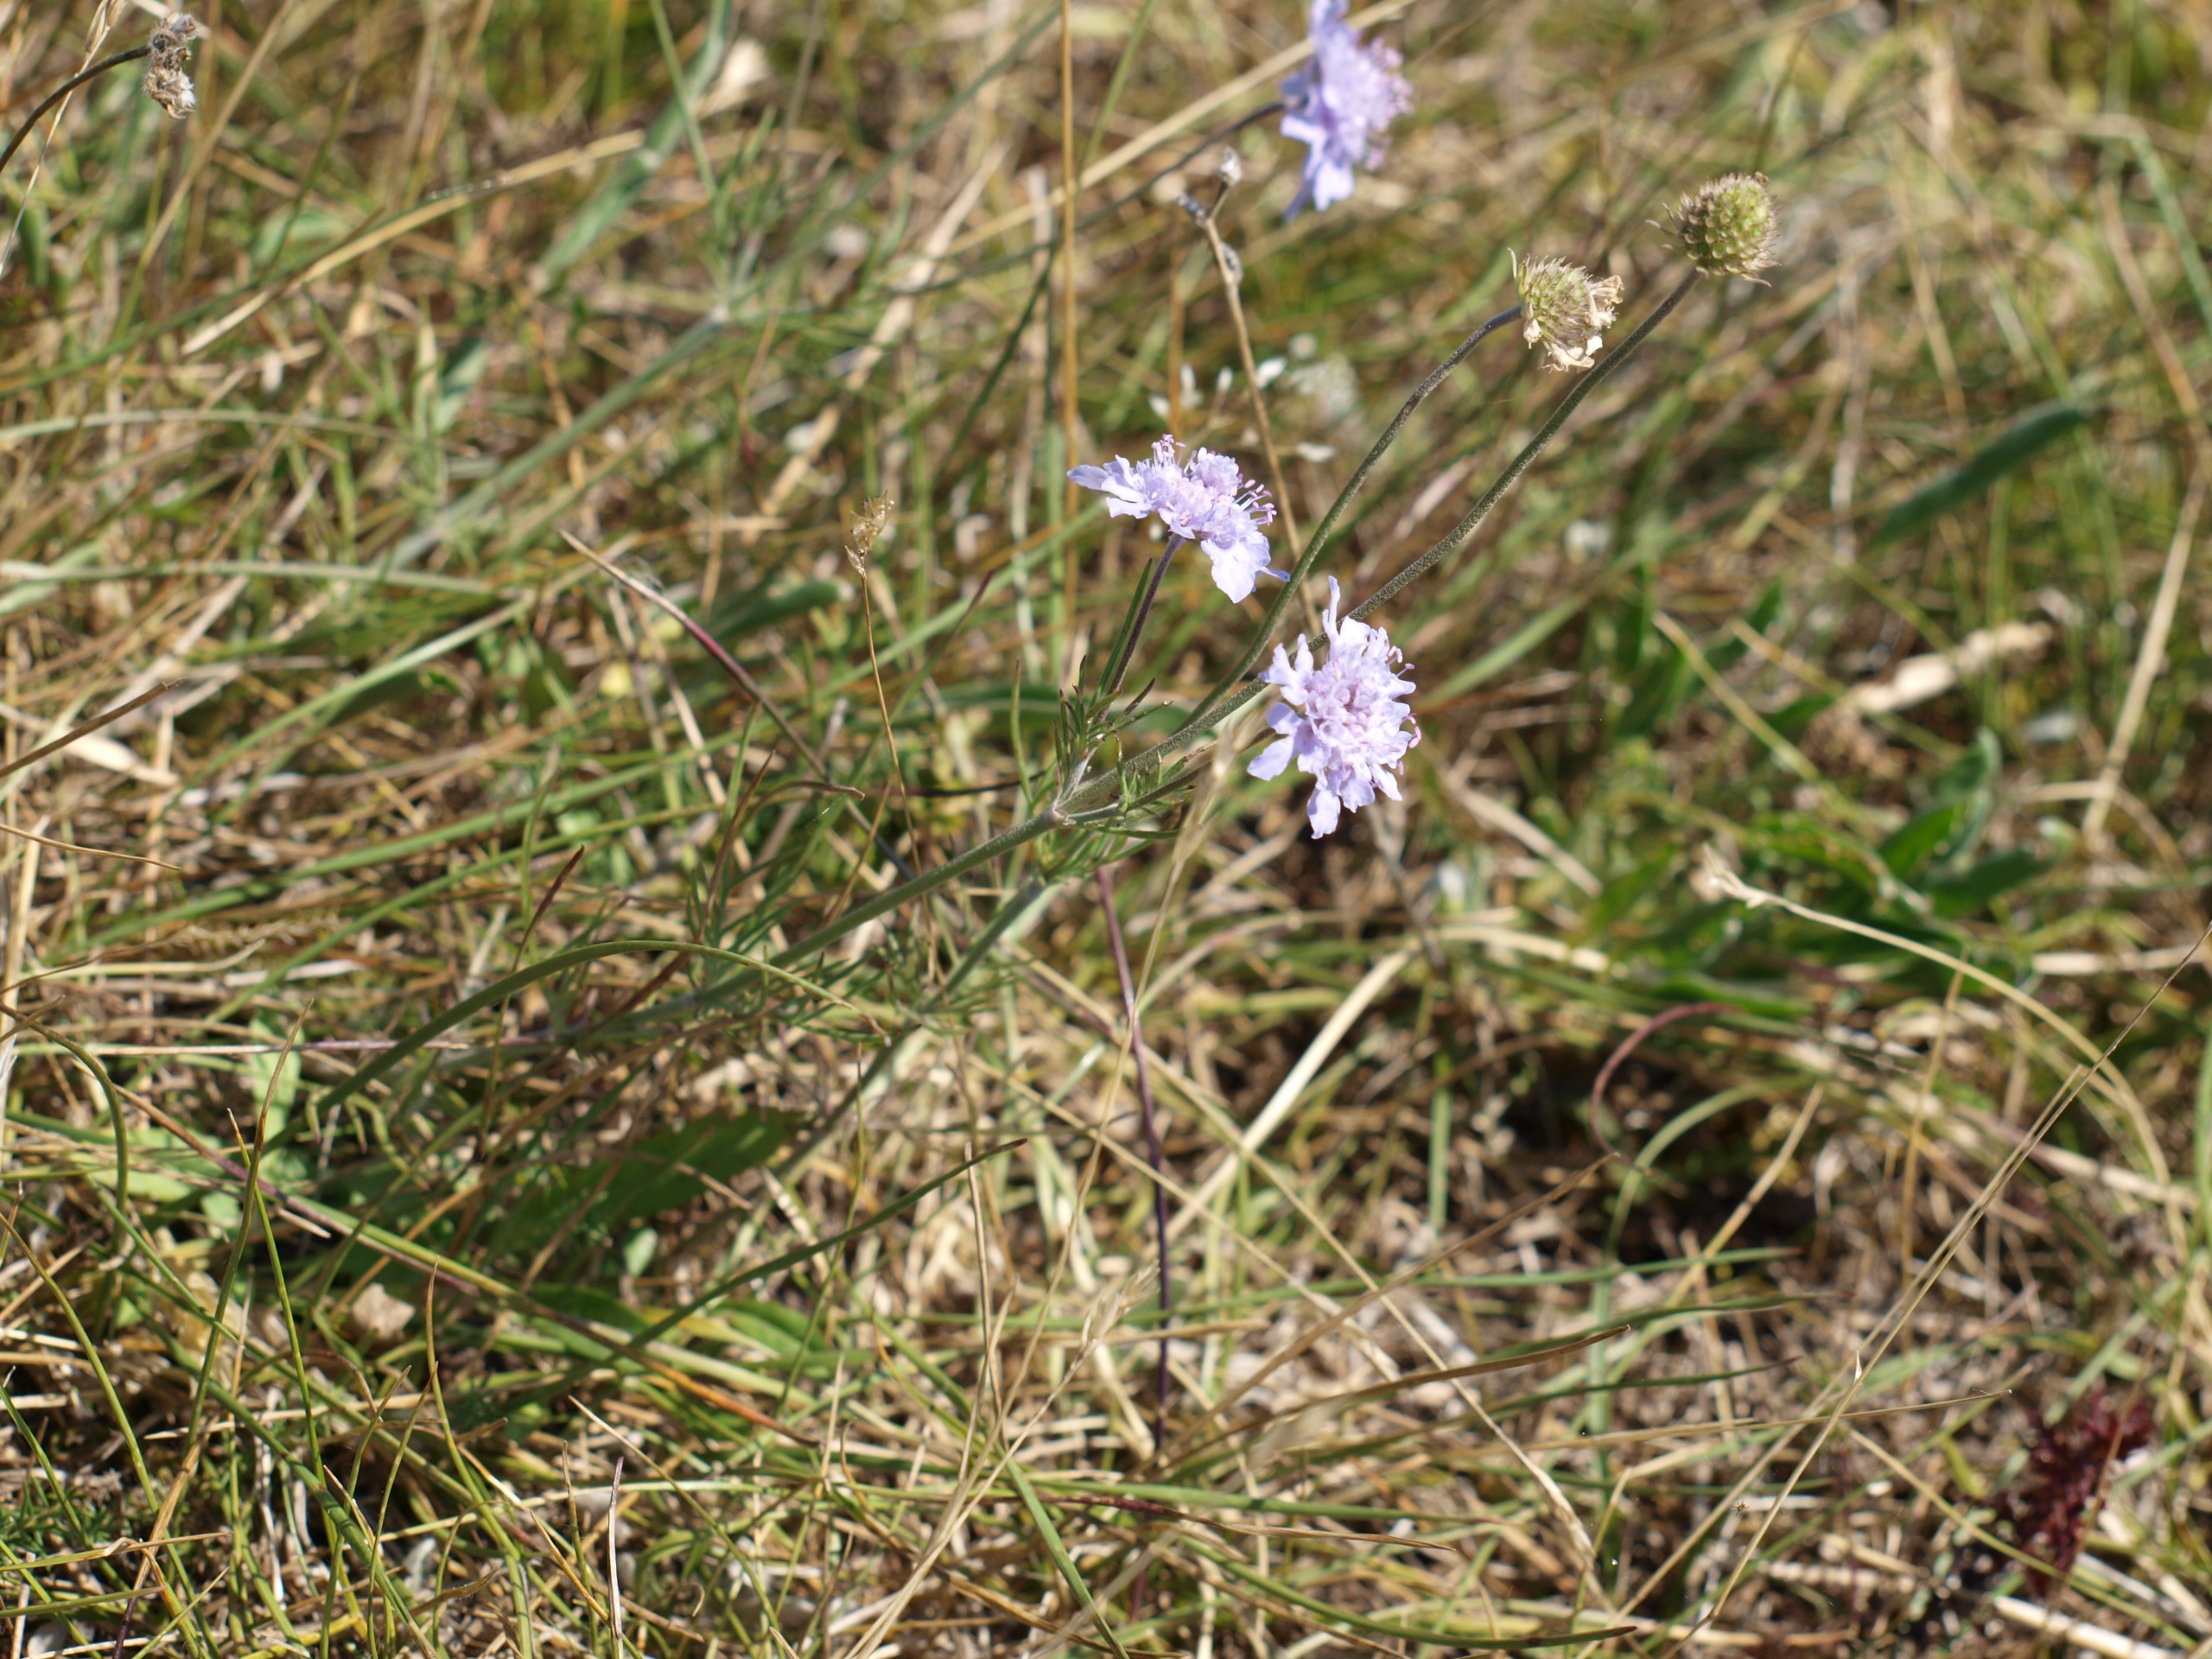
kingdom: Plantae
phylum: Tracheophyta
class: Magnoliopsida
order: Dipsacales
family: Caprifoliaceae
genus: Scabiosa
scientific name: Scabiosa canescens
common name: Vellugtende skabiose
